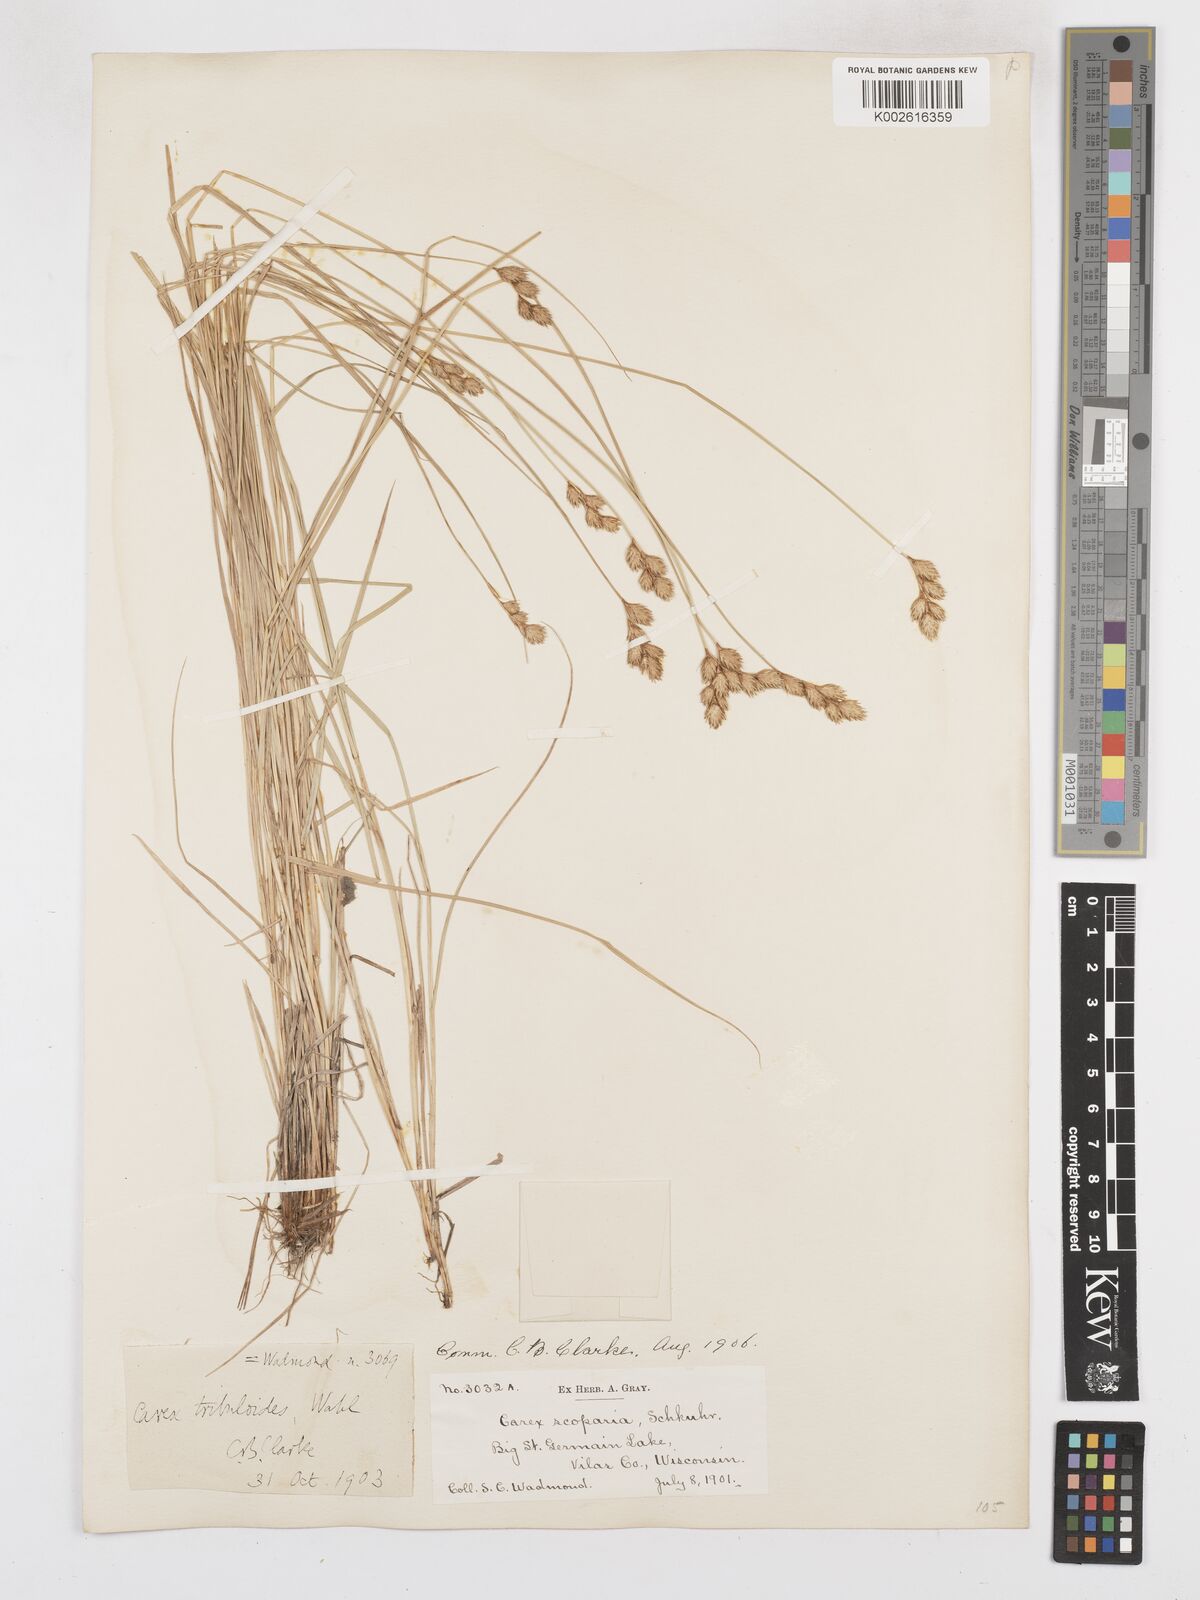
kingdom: Plantae
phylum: Tracheophyta
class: Liliopsida
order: Poales
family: Cyperaceae
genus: Carex
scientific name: Carex tribuloides
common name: Blunt broom sedge
